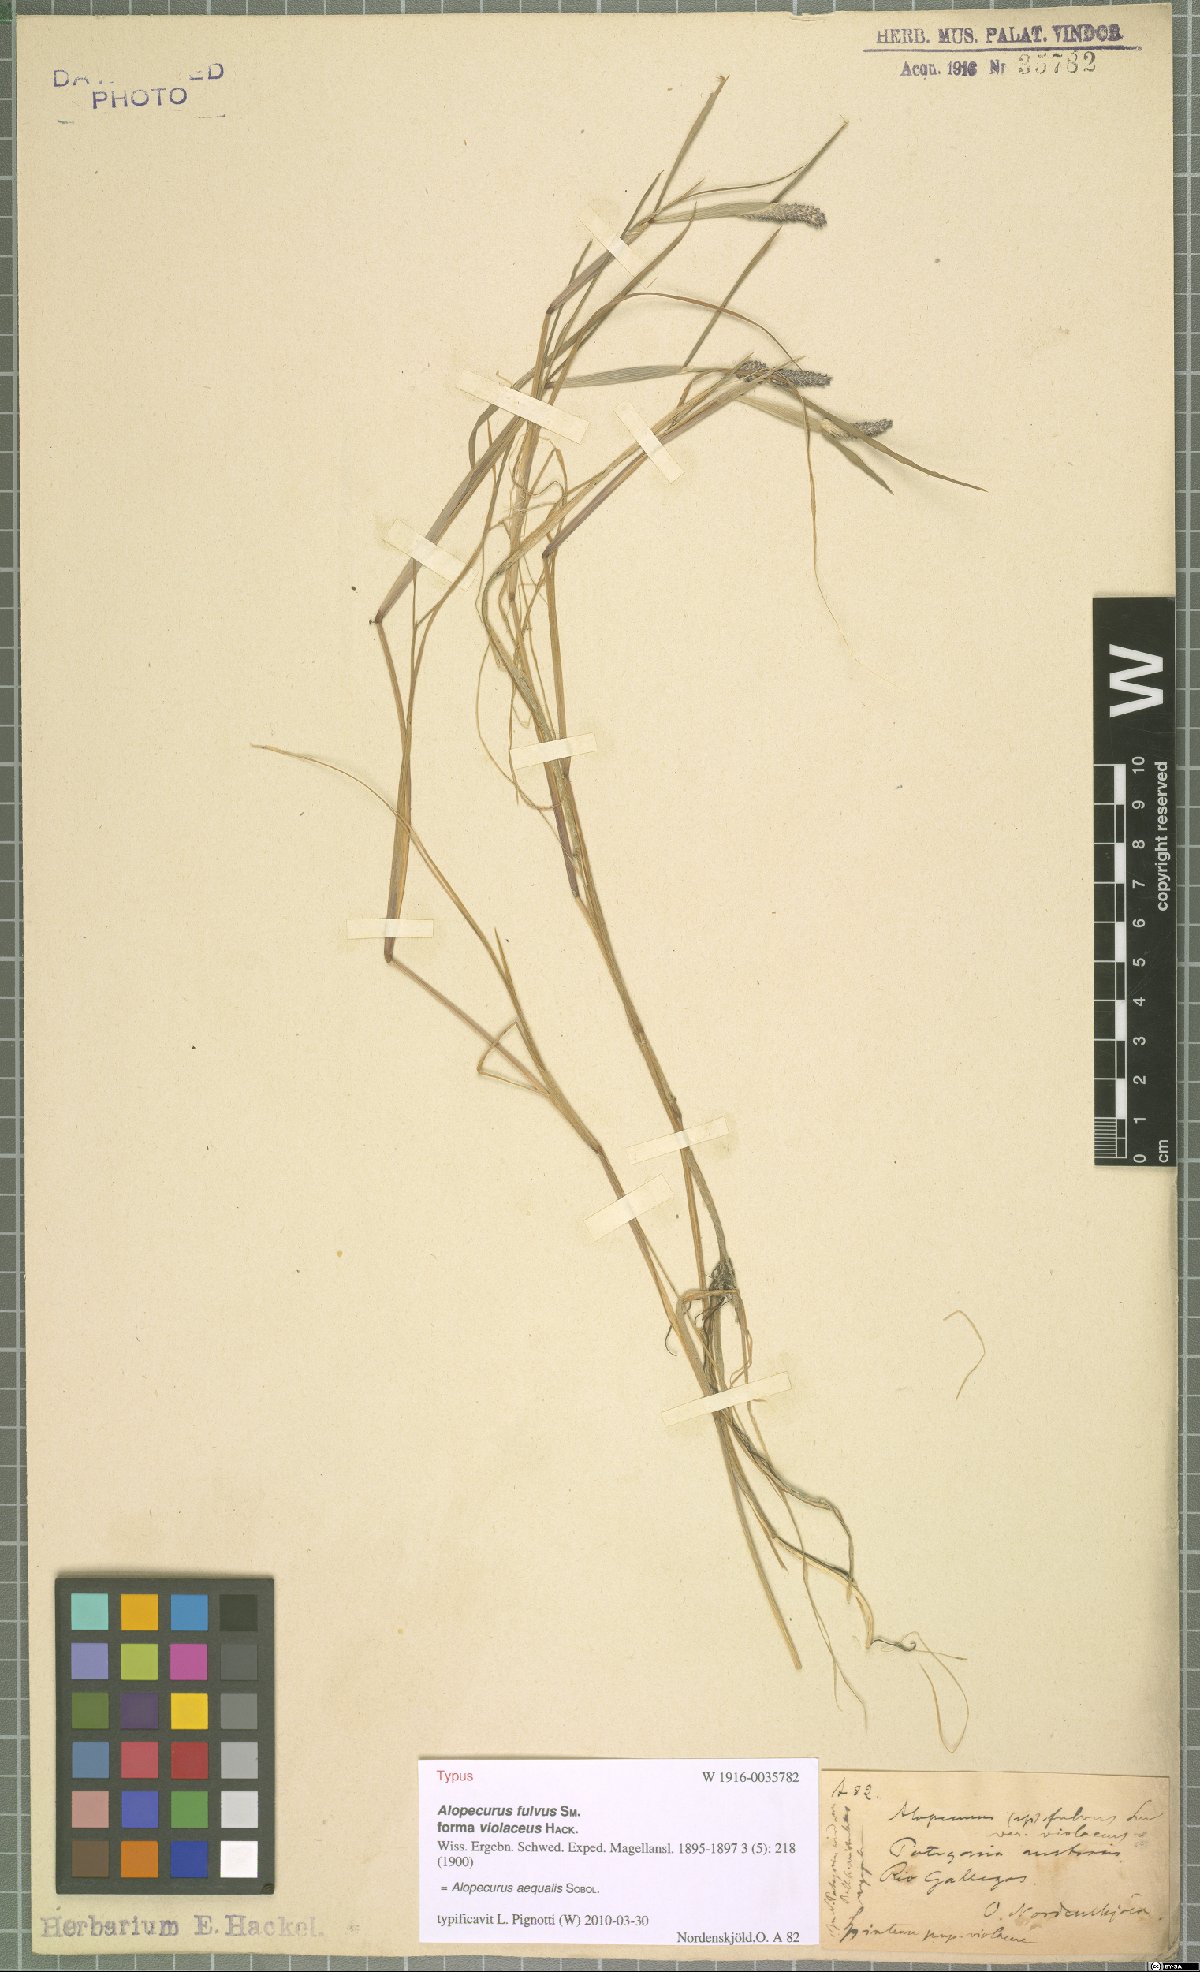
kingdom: Plantae
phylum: Tracheophyta
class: Liliopsida
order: Poales
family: Poaceae
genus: Alopecurus
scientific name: Alopecurus aequalis
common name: Orange foxtail
